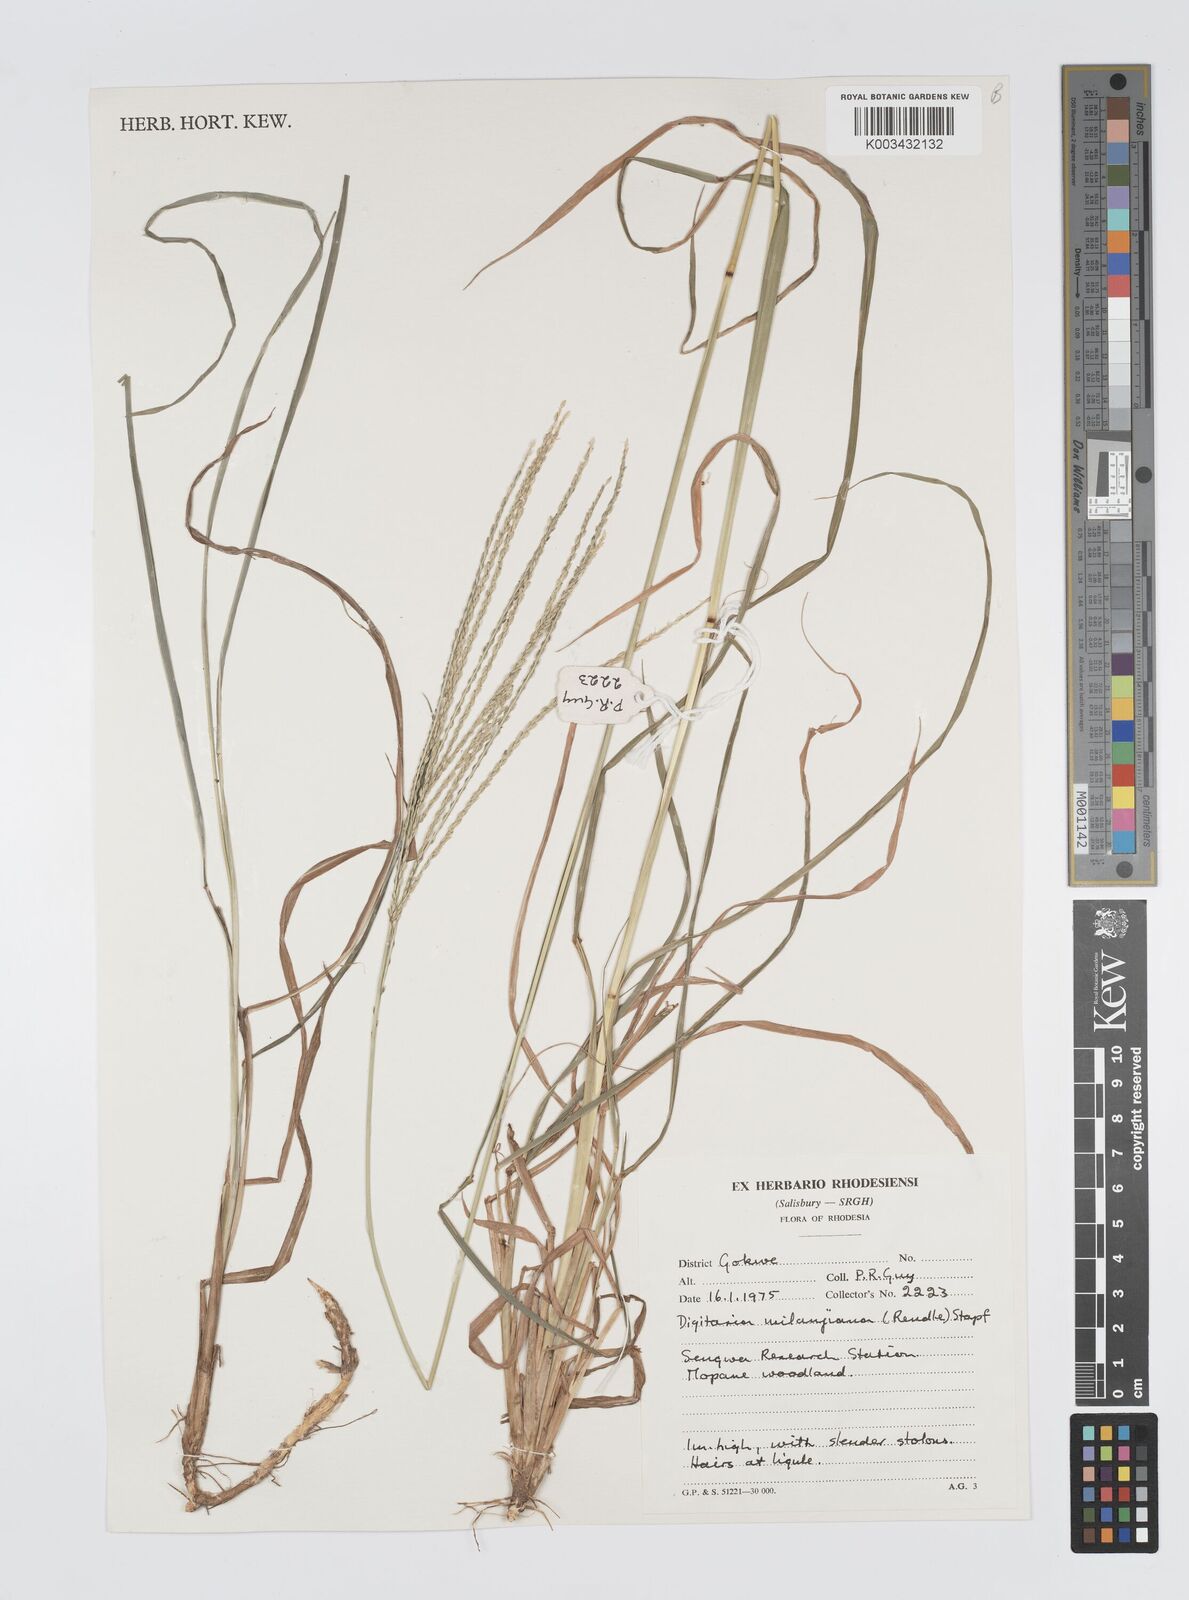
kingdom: Plantae
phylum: Tracheophyta
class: Liliopsida
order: Poales
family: Poaceae
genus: Digitaria
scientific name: Digitaria milanjiana
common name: Madagascar crabgrass
